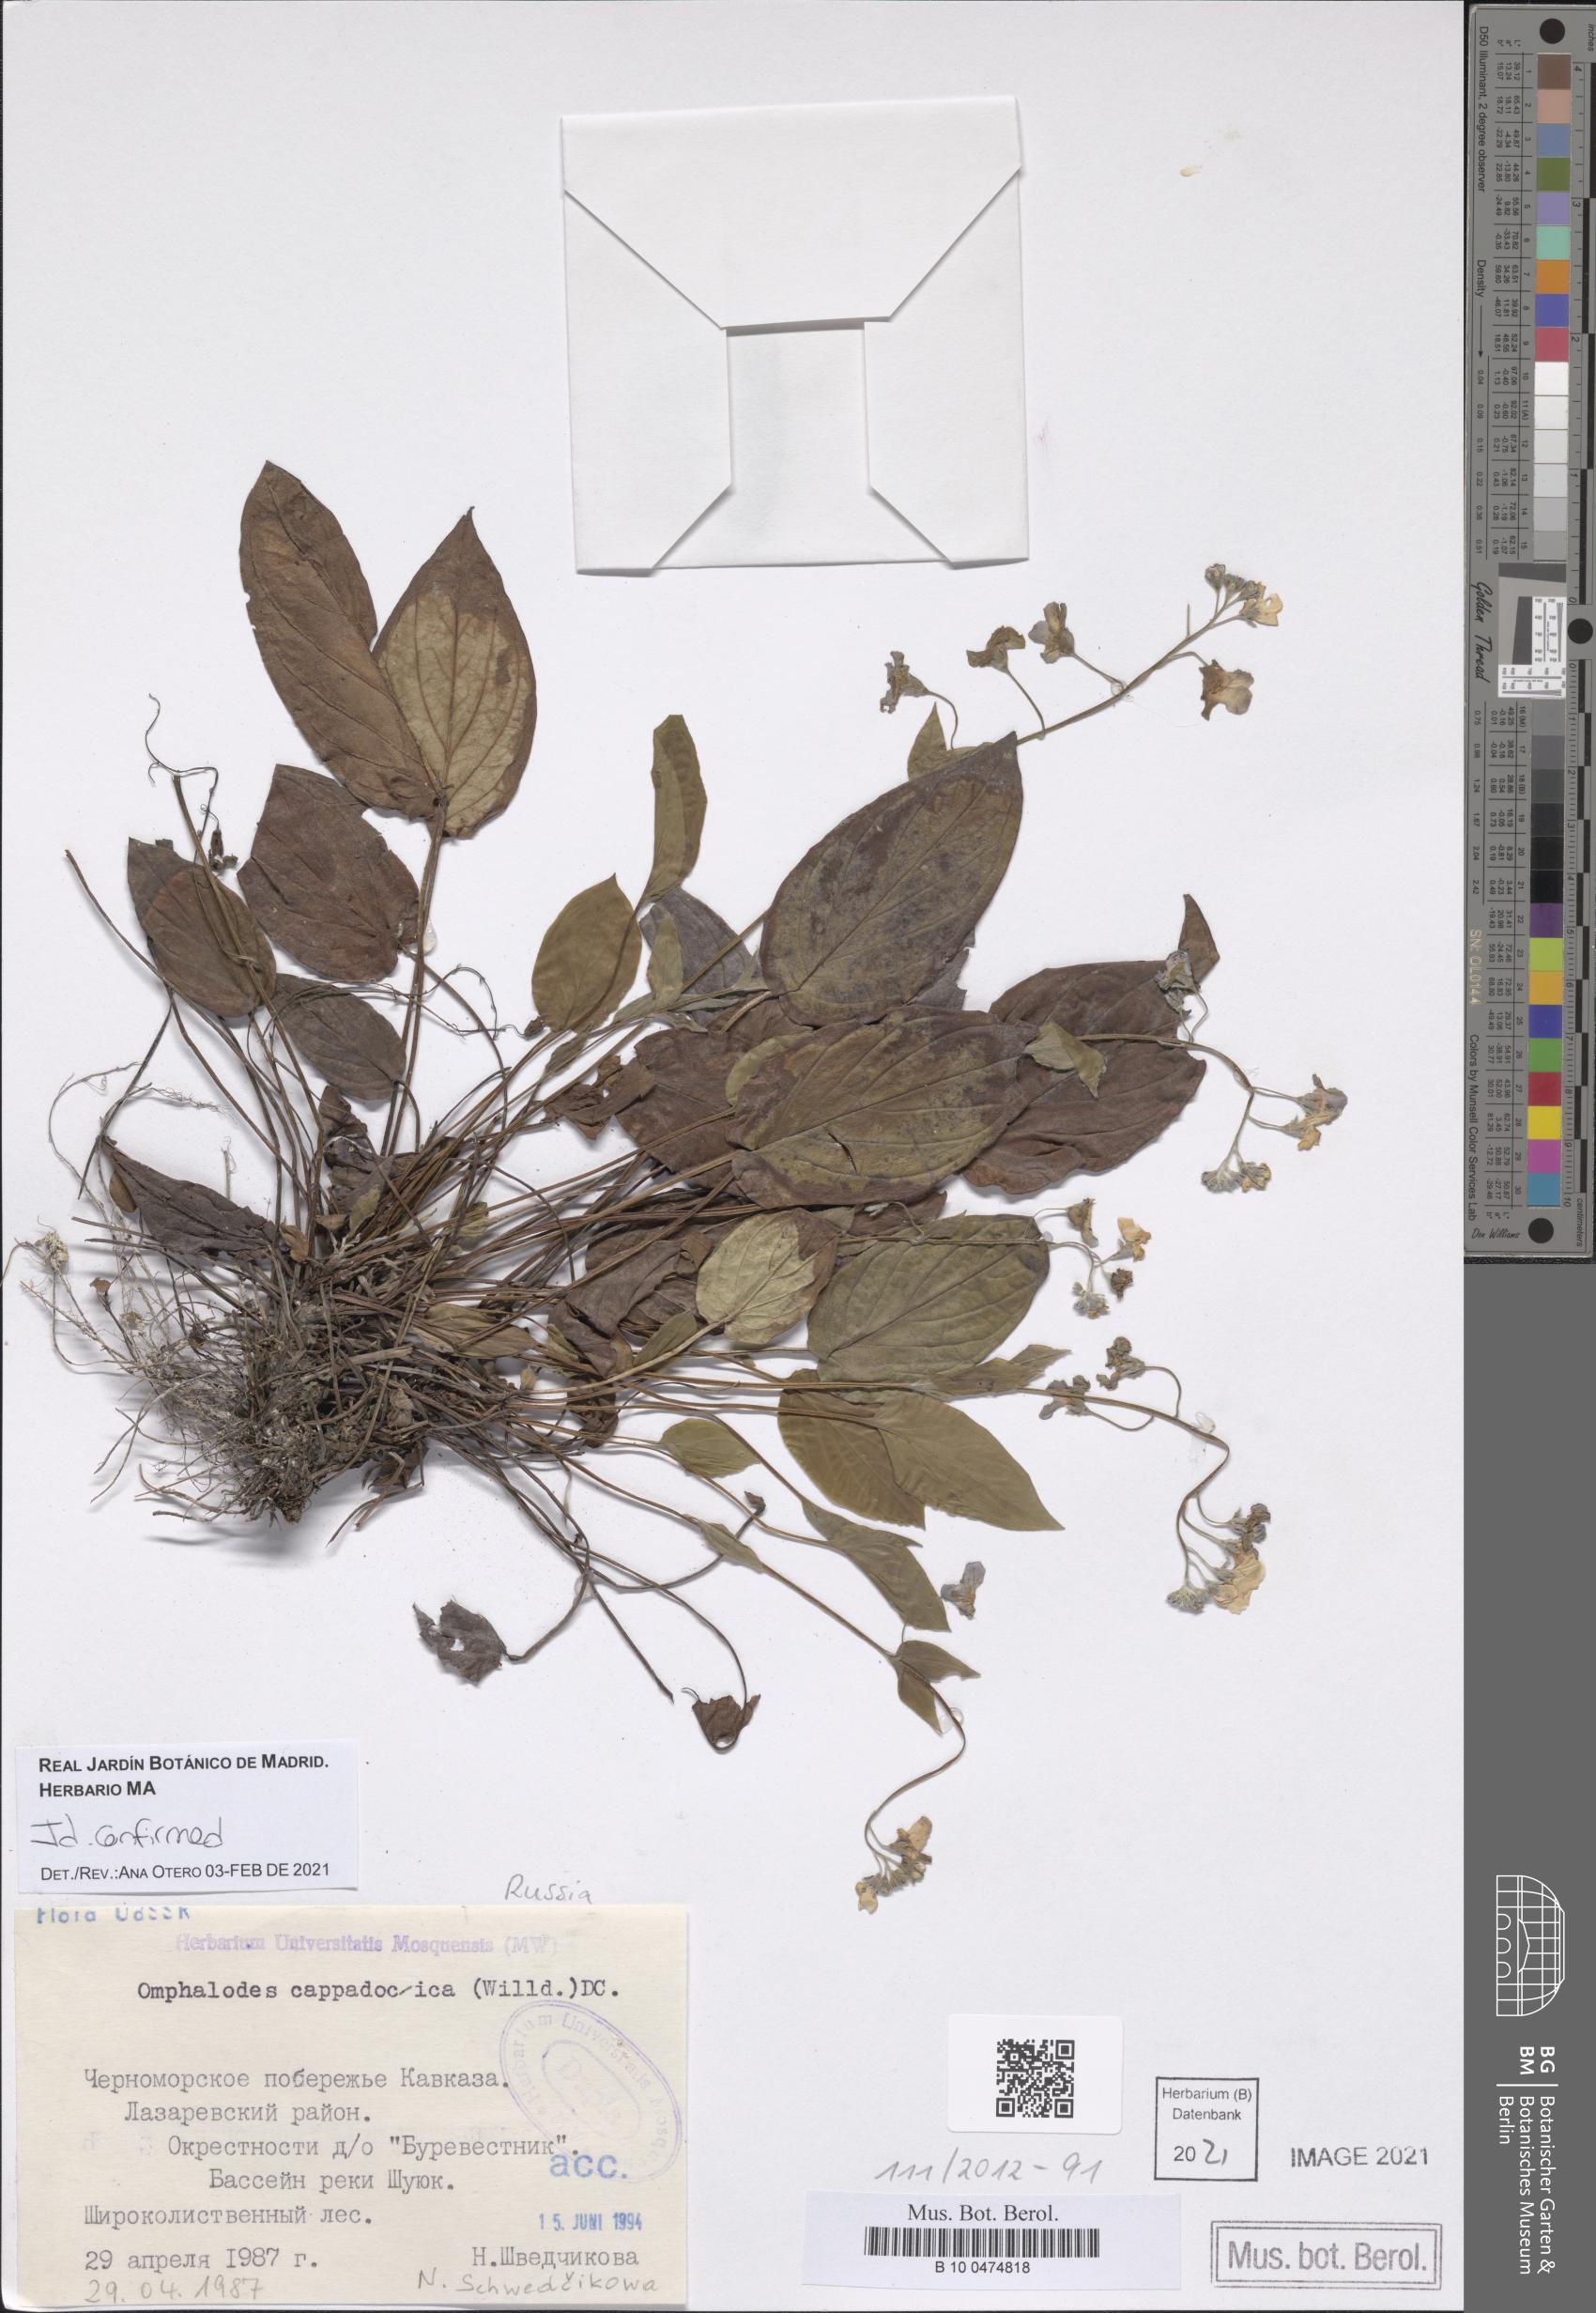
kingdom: Plantae
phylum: Tracheophyta
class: Magnoliopsida
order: Boraginales
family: Boraginaceae
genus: Omphalodes
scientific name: Omphalodes cappadocica
